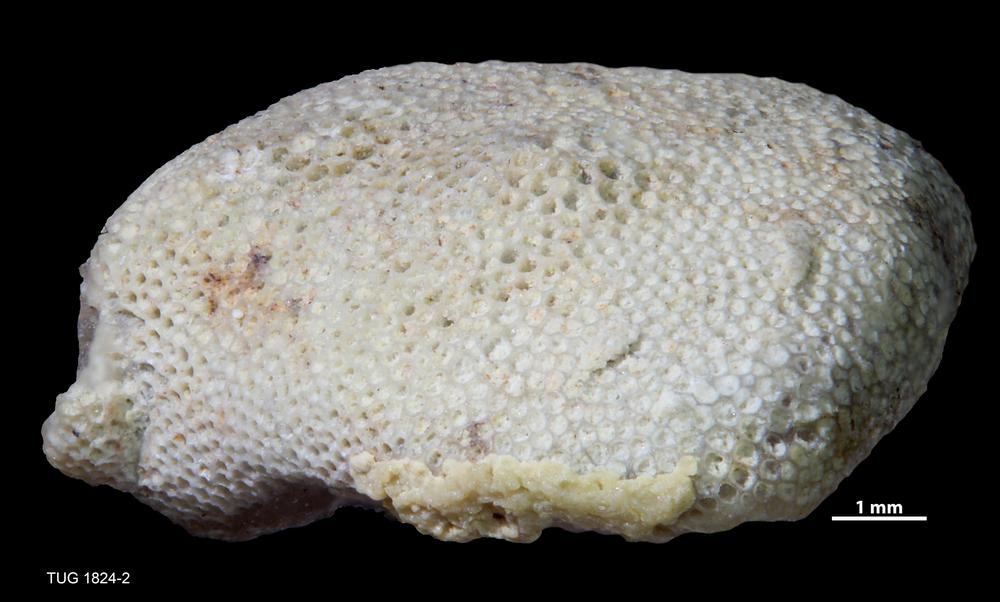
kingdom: Animalia
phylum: Bryozoa
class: Stenolaemata
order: Trepostomatida
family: Diplotrypidae
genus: Diplotrypa
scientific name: Diplotrypa
